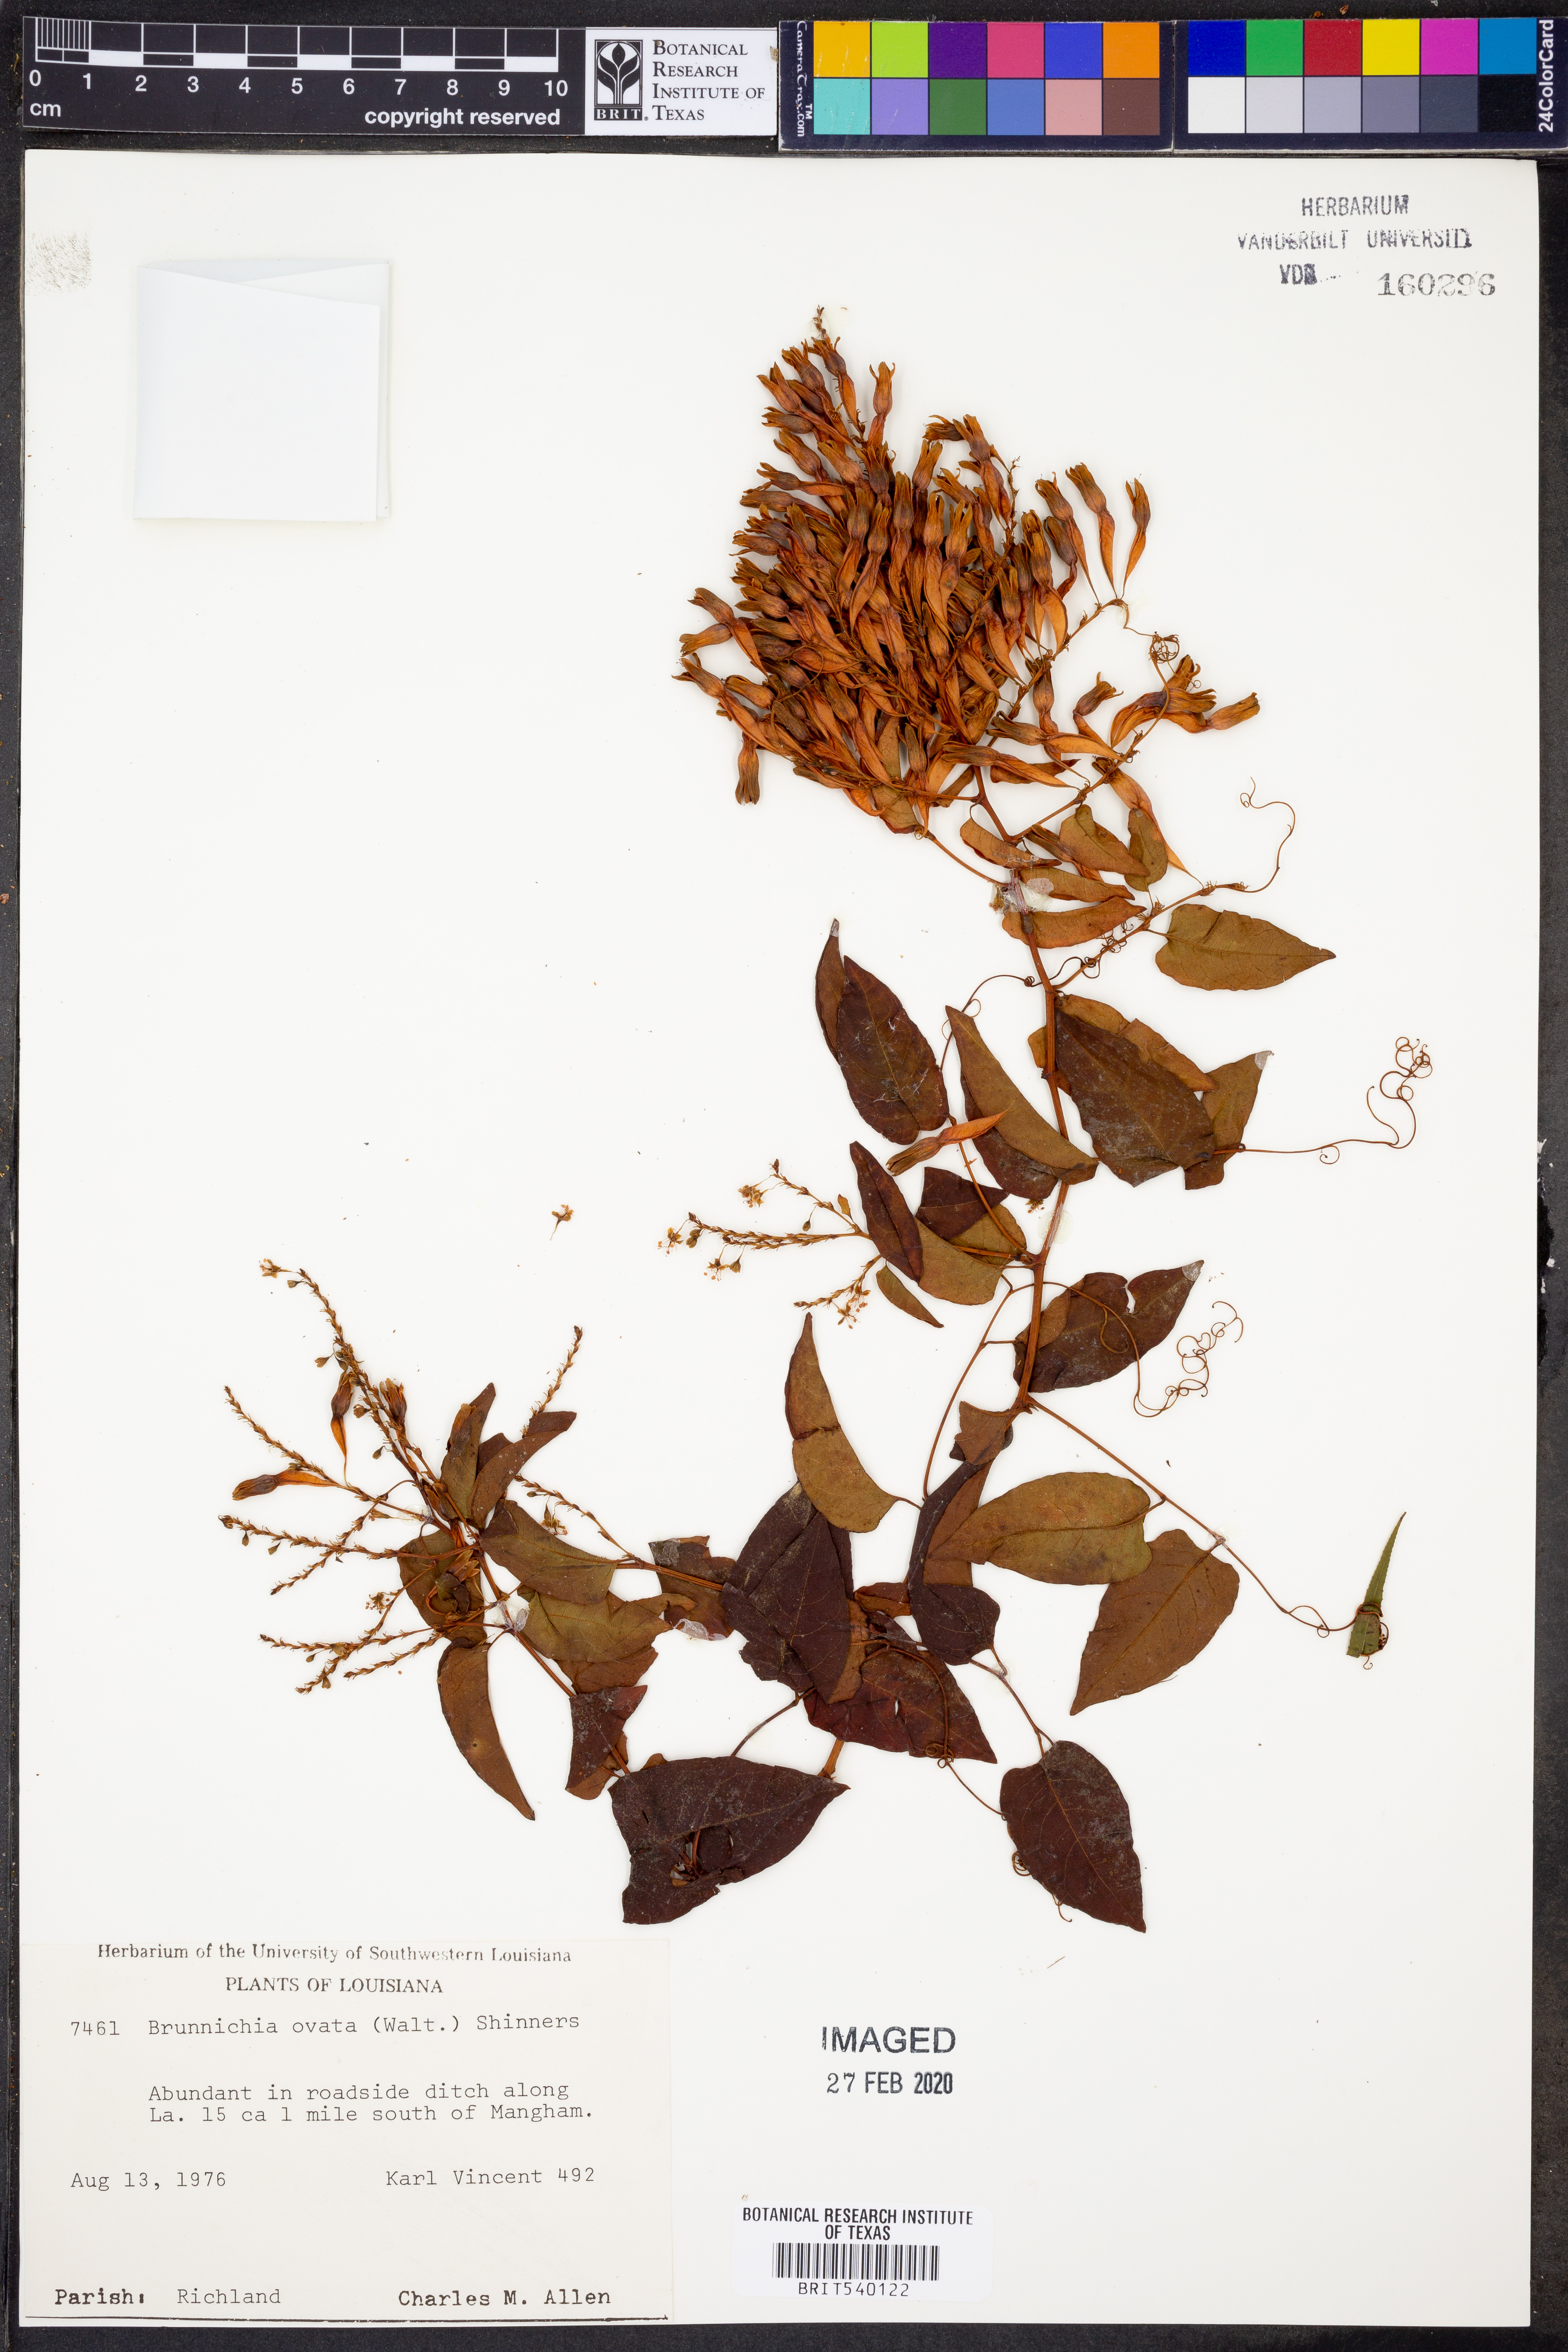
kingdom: Plantae
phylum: Tracheophyta
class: Magnoliopsida
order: Caryophyllales
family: Polygonaceae
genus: Brunnichia
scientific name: Brunnichia ovata
